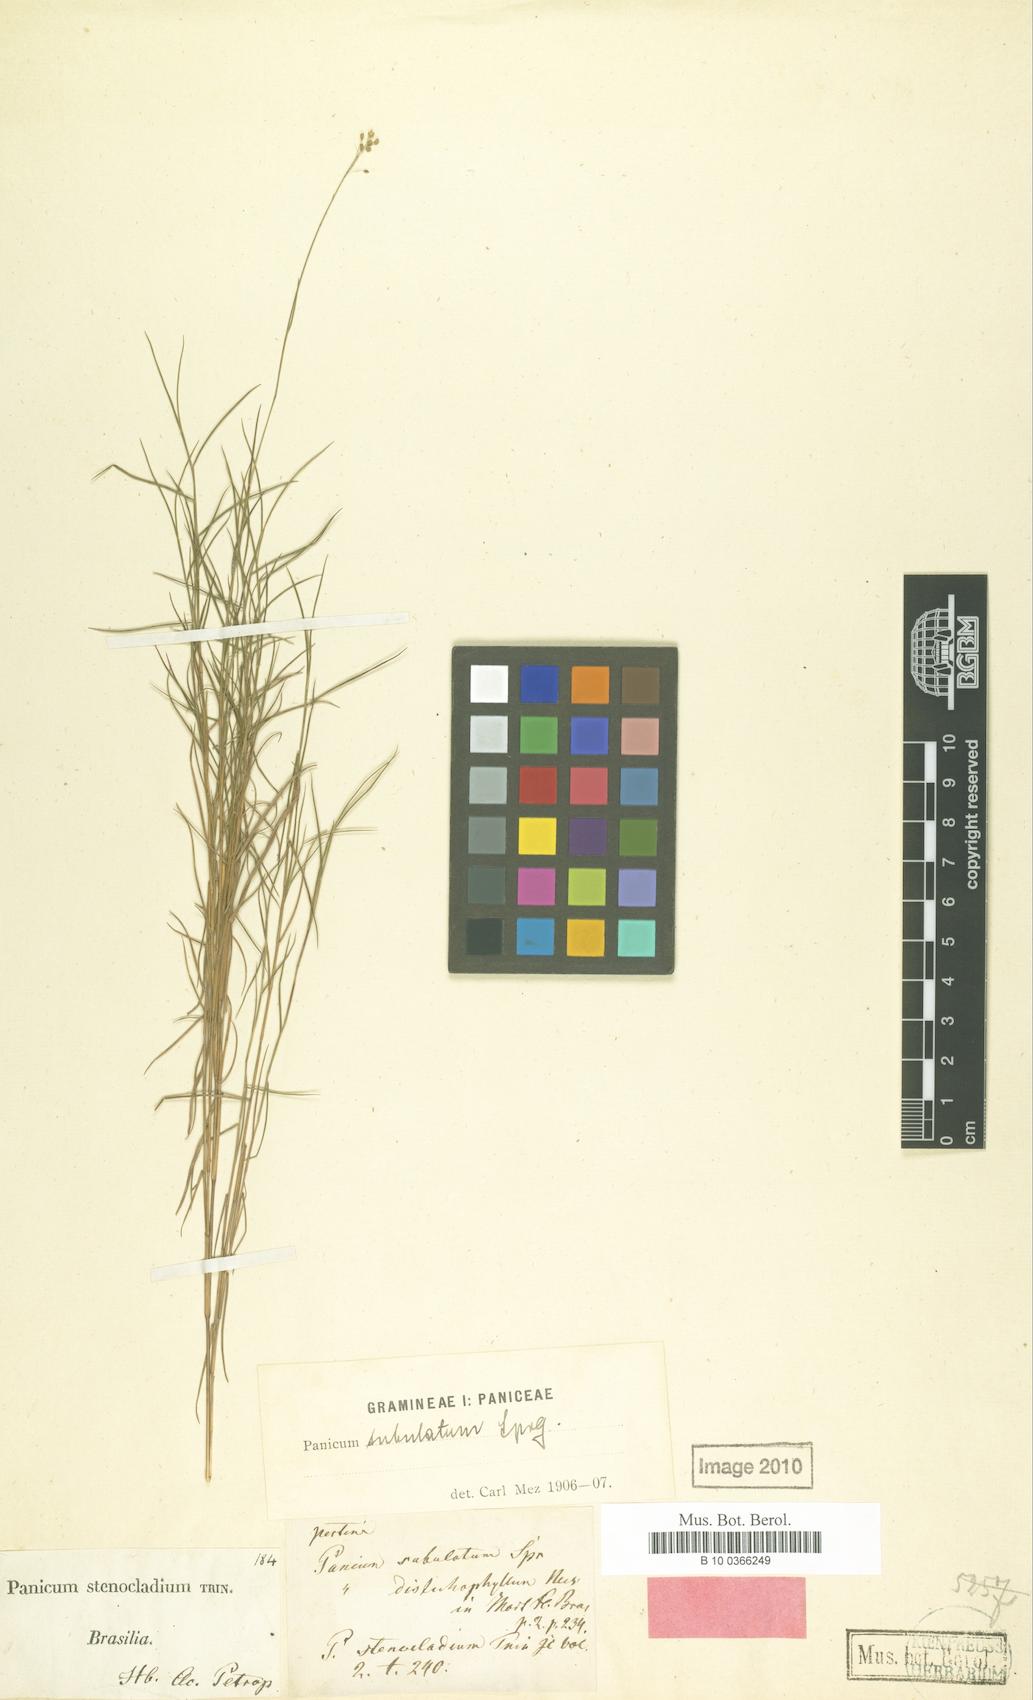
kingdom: Plantae
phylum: Tracheophyta
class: Liliopsida
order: Poales
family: Poaceae
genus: Trichanthecium
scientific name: Trichanthecium distichophyllum
